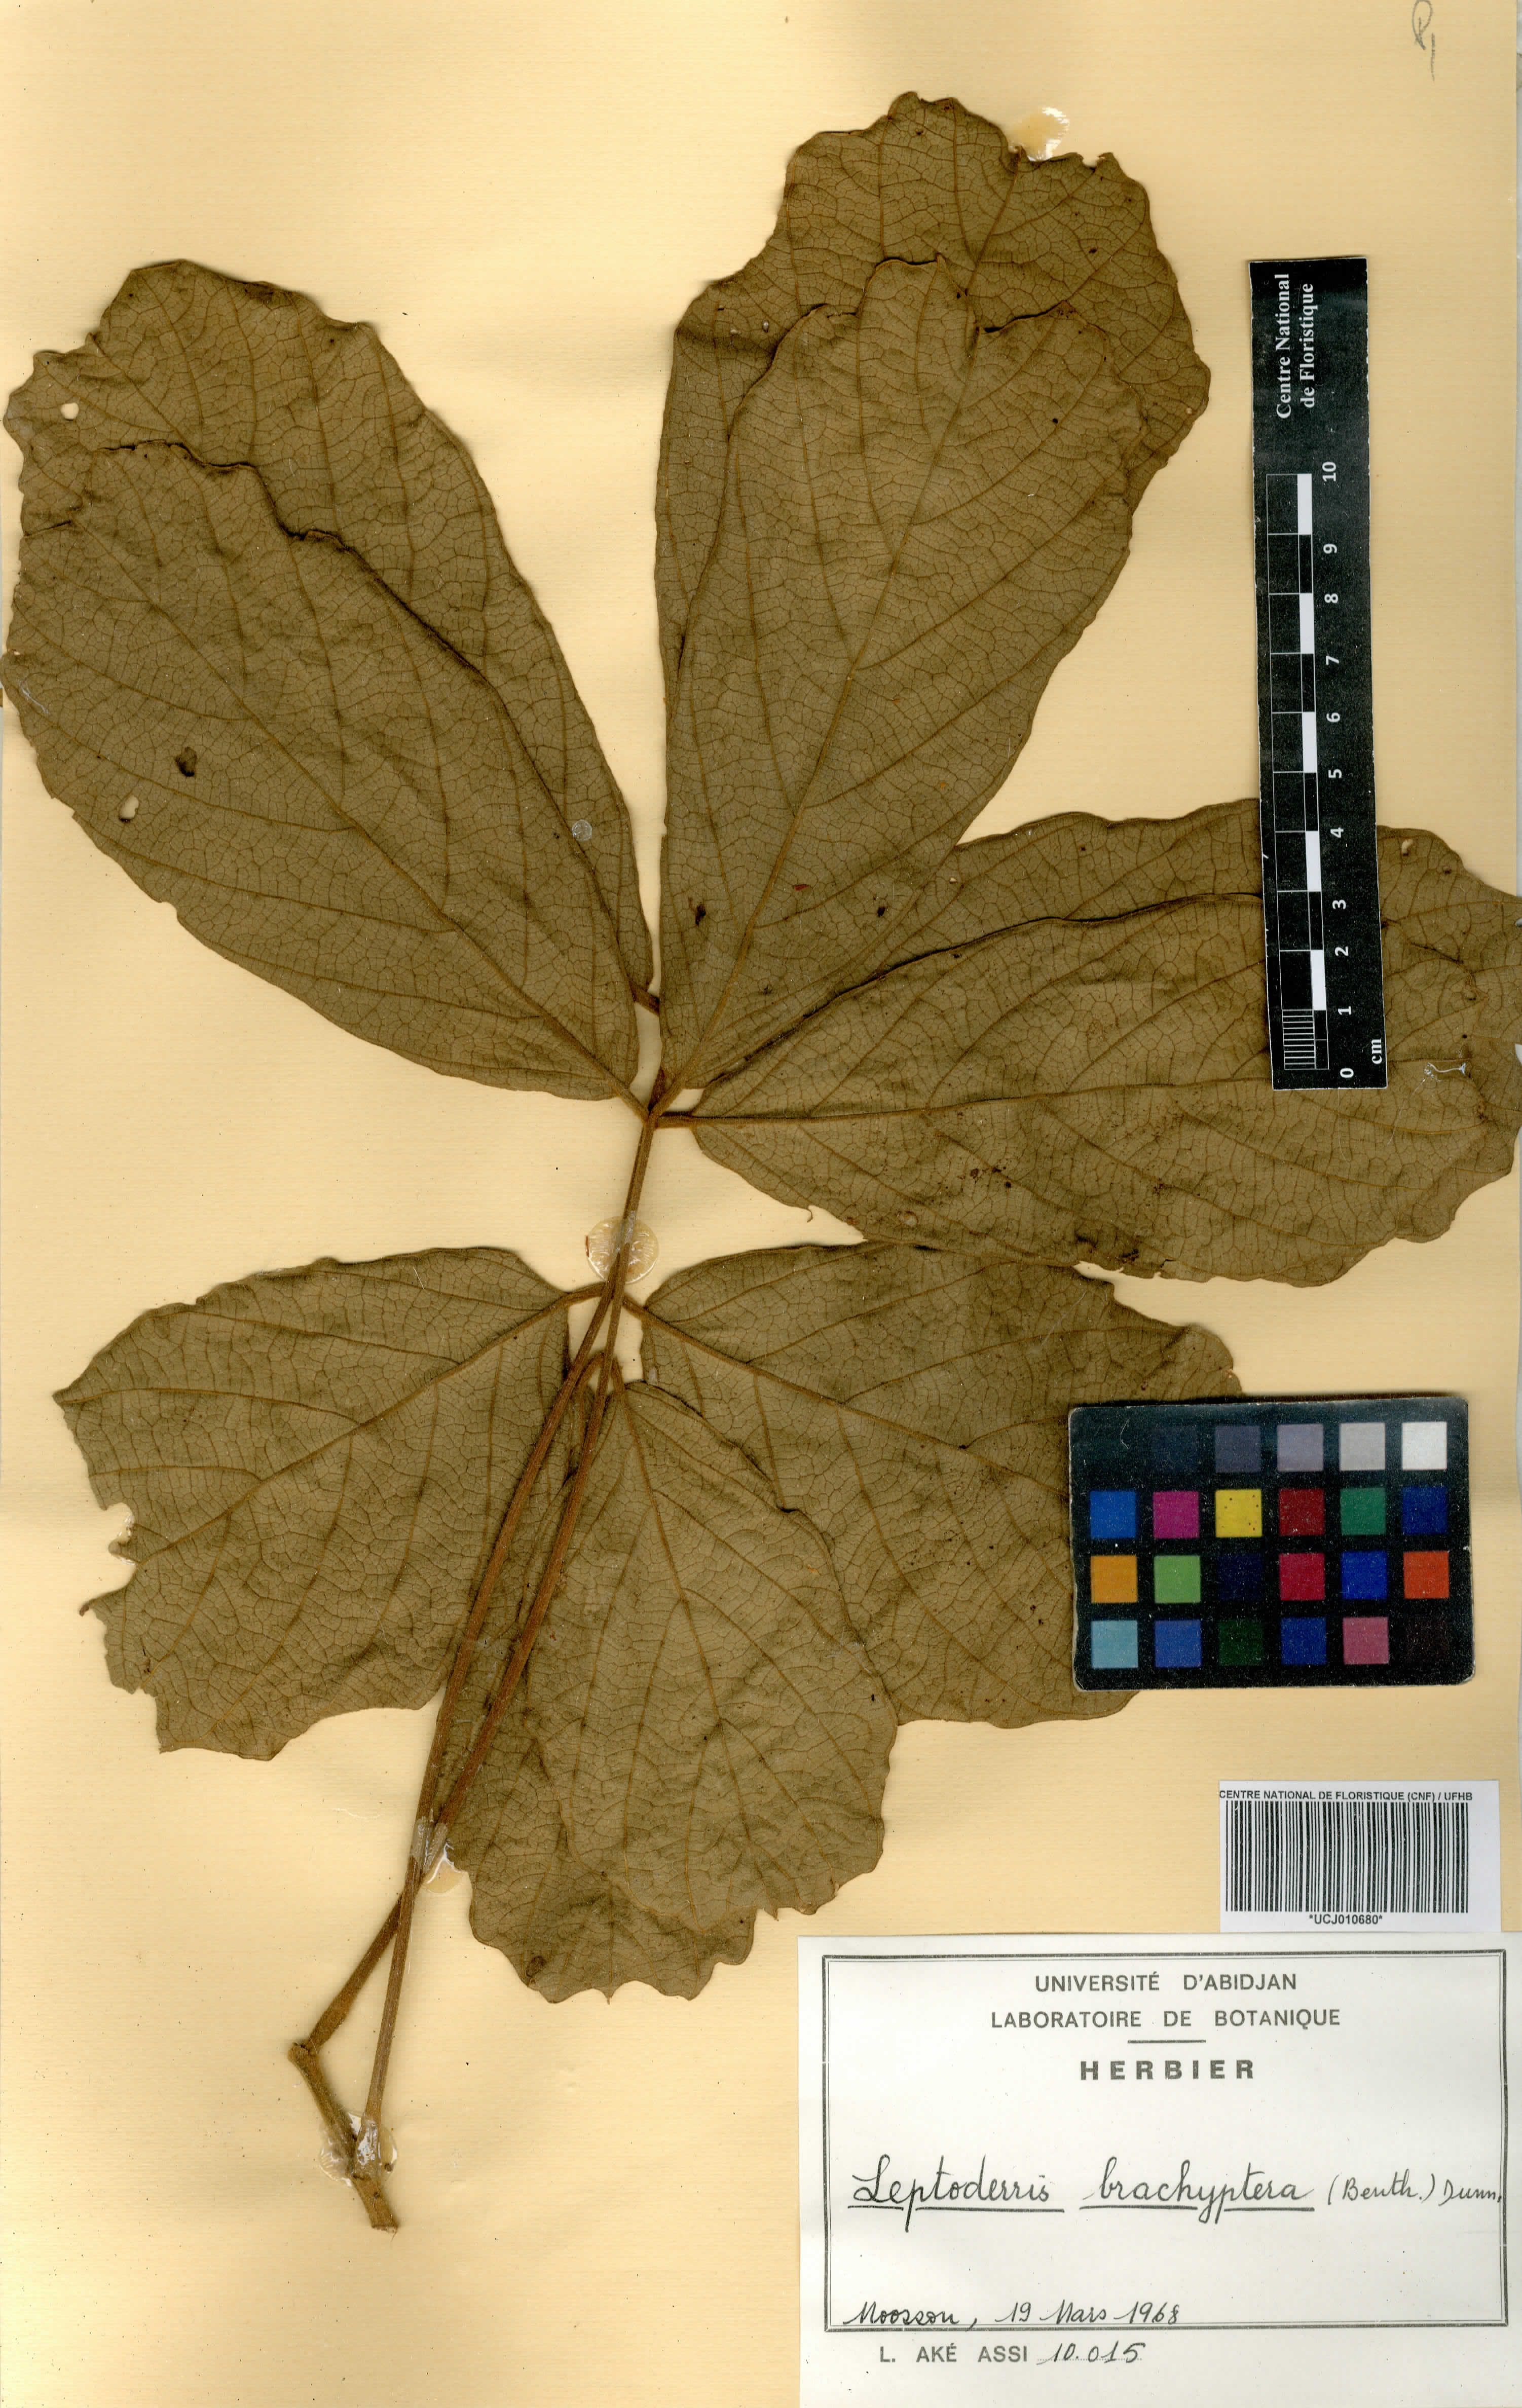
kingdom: Plantae
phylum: Tracheophyta
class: Magnoliopsida
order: Fabales
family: Fabaceae
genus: Leptoderris
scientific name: Leptoderris brachyptera
